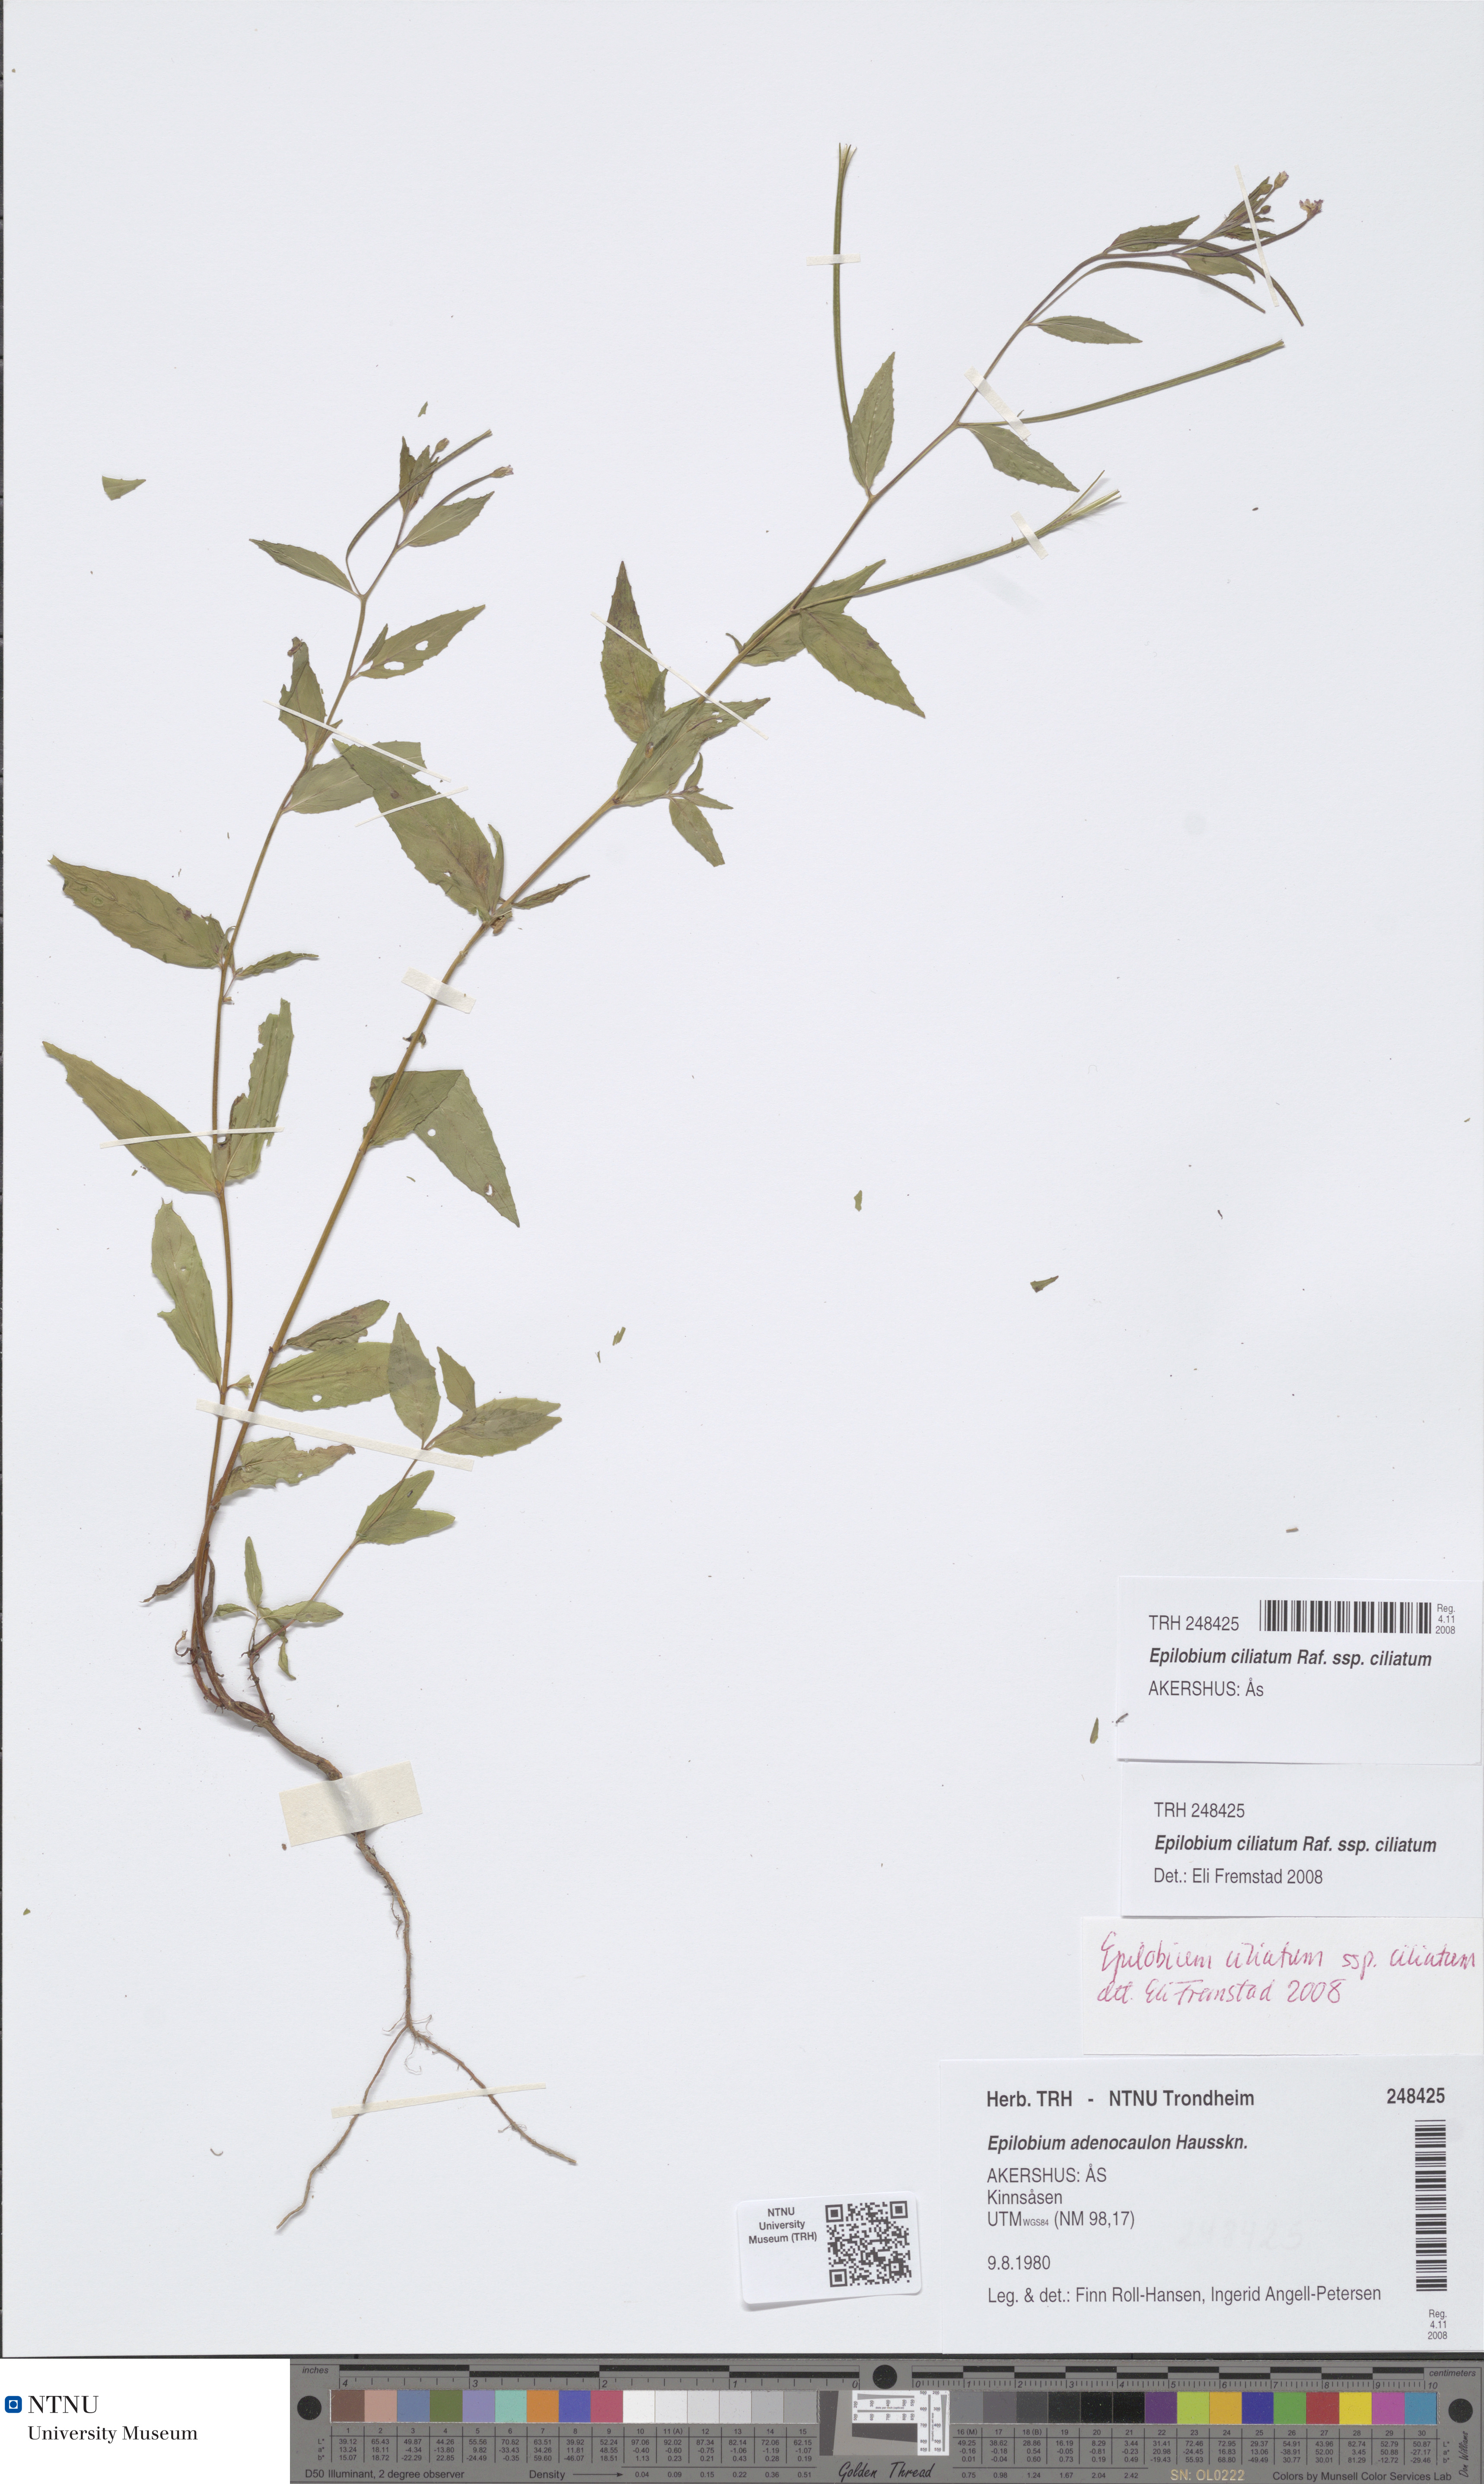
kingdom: Plantae
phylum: Tracheophyta
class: Magnoliopsida
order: Myrtales
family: Onagraceae
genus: Epilobium
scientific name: Epilobium ciliatum
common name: American willowherb
